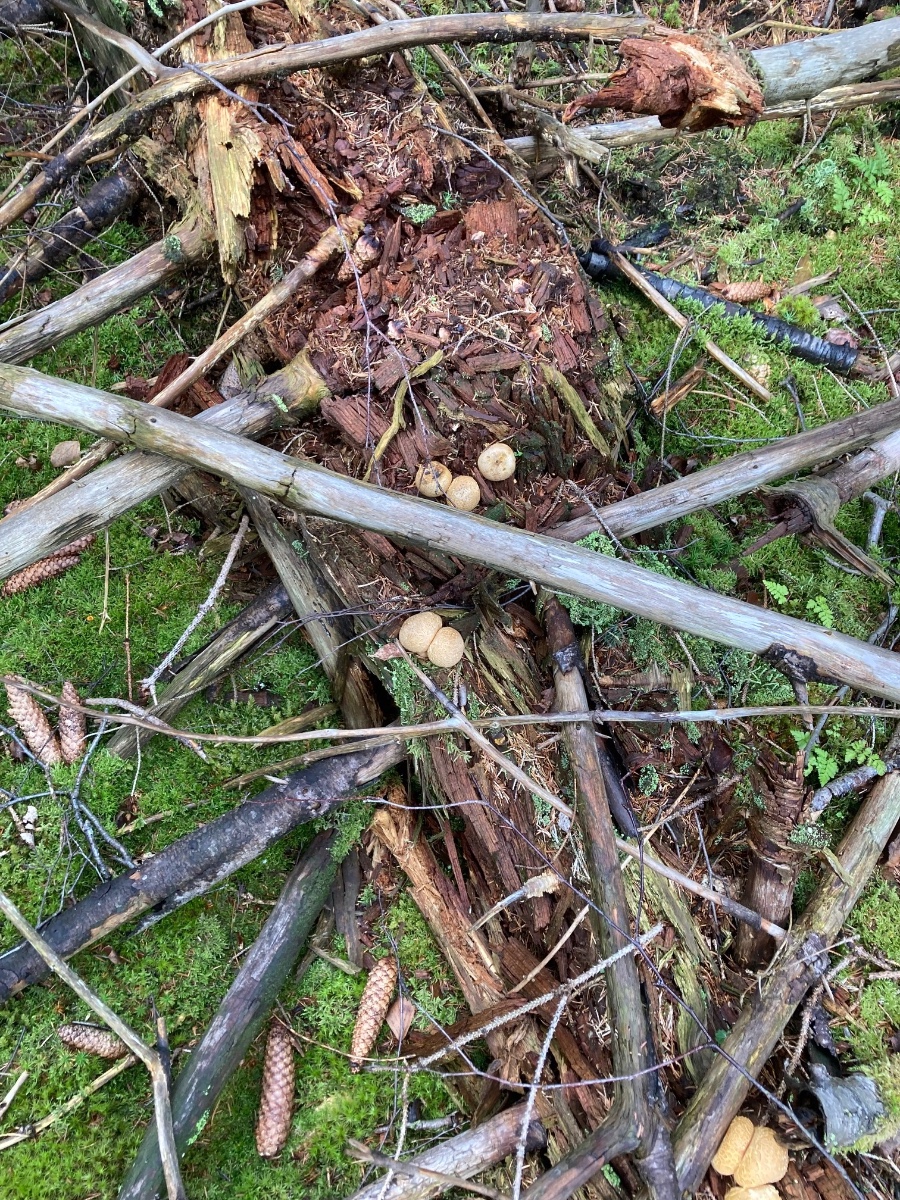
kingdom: Fungi
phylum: Basidiomycota
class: Agaricomycetes
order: Boletales
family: Sclerodermataceae
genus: Scleroderma
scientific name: Scleroderma citrinum
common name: almindelig bruskbold
